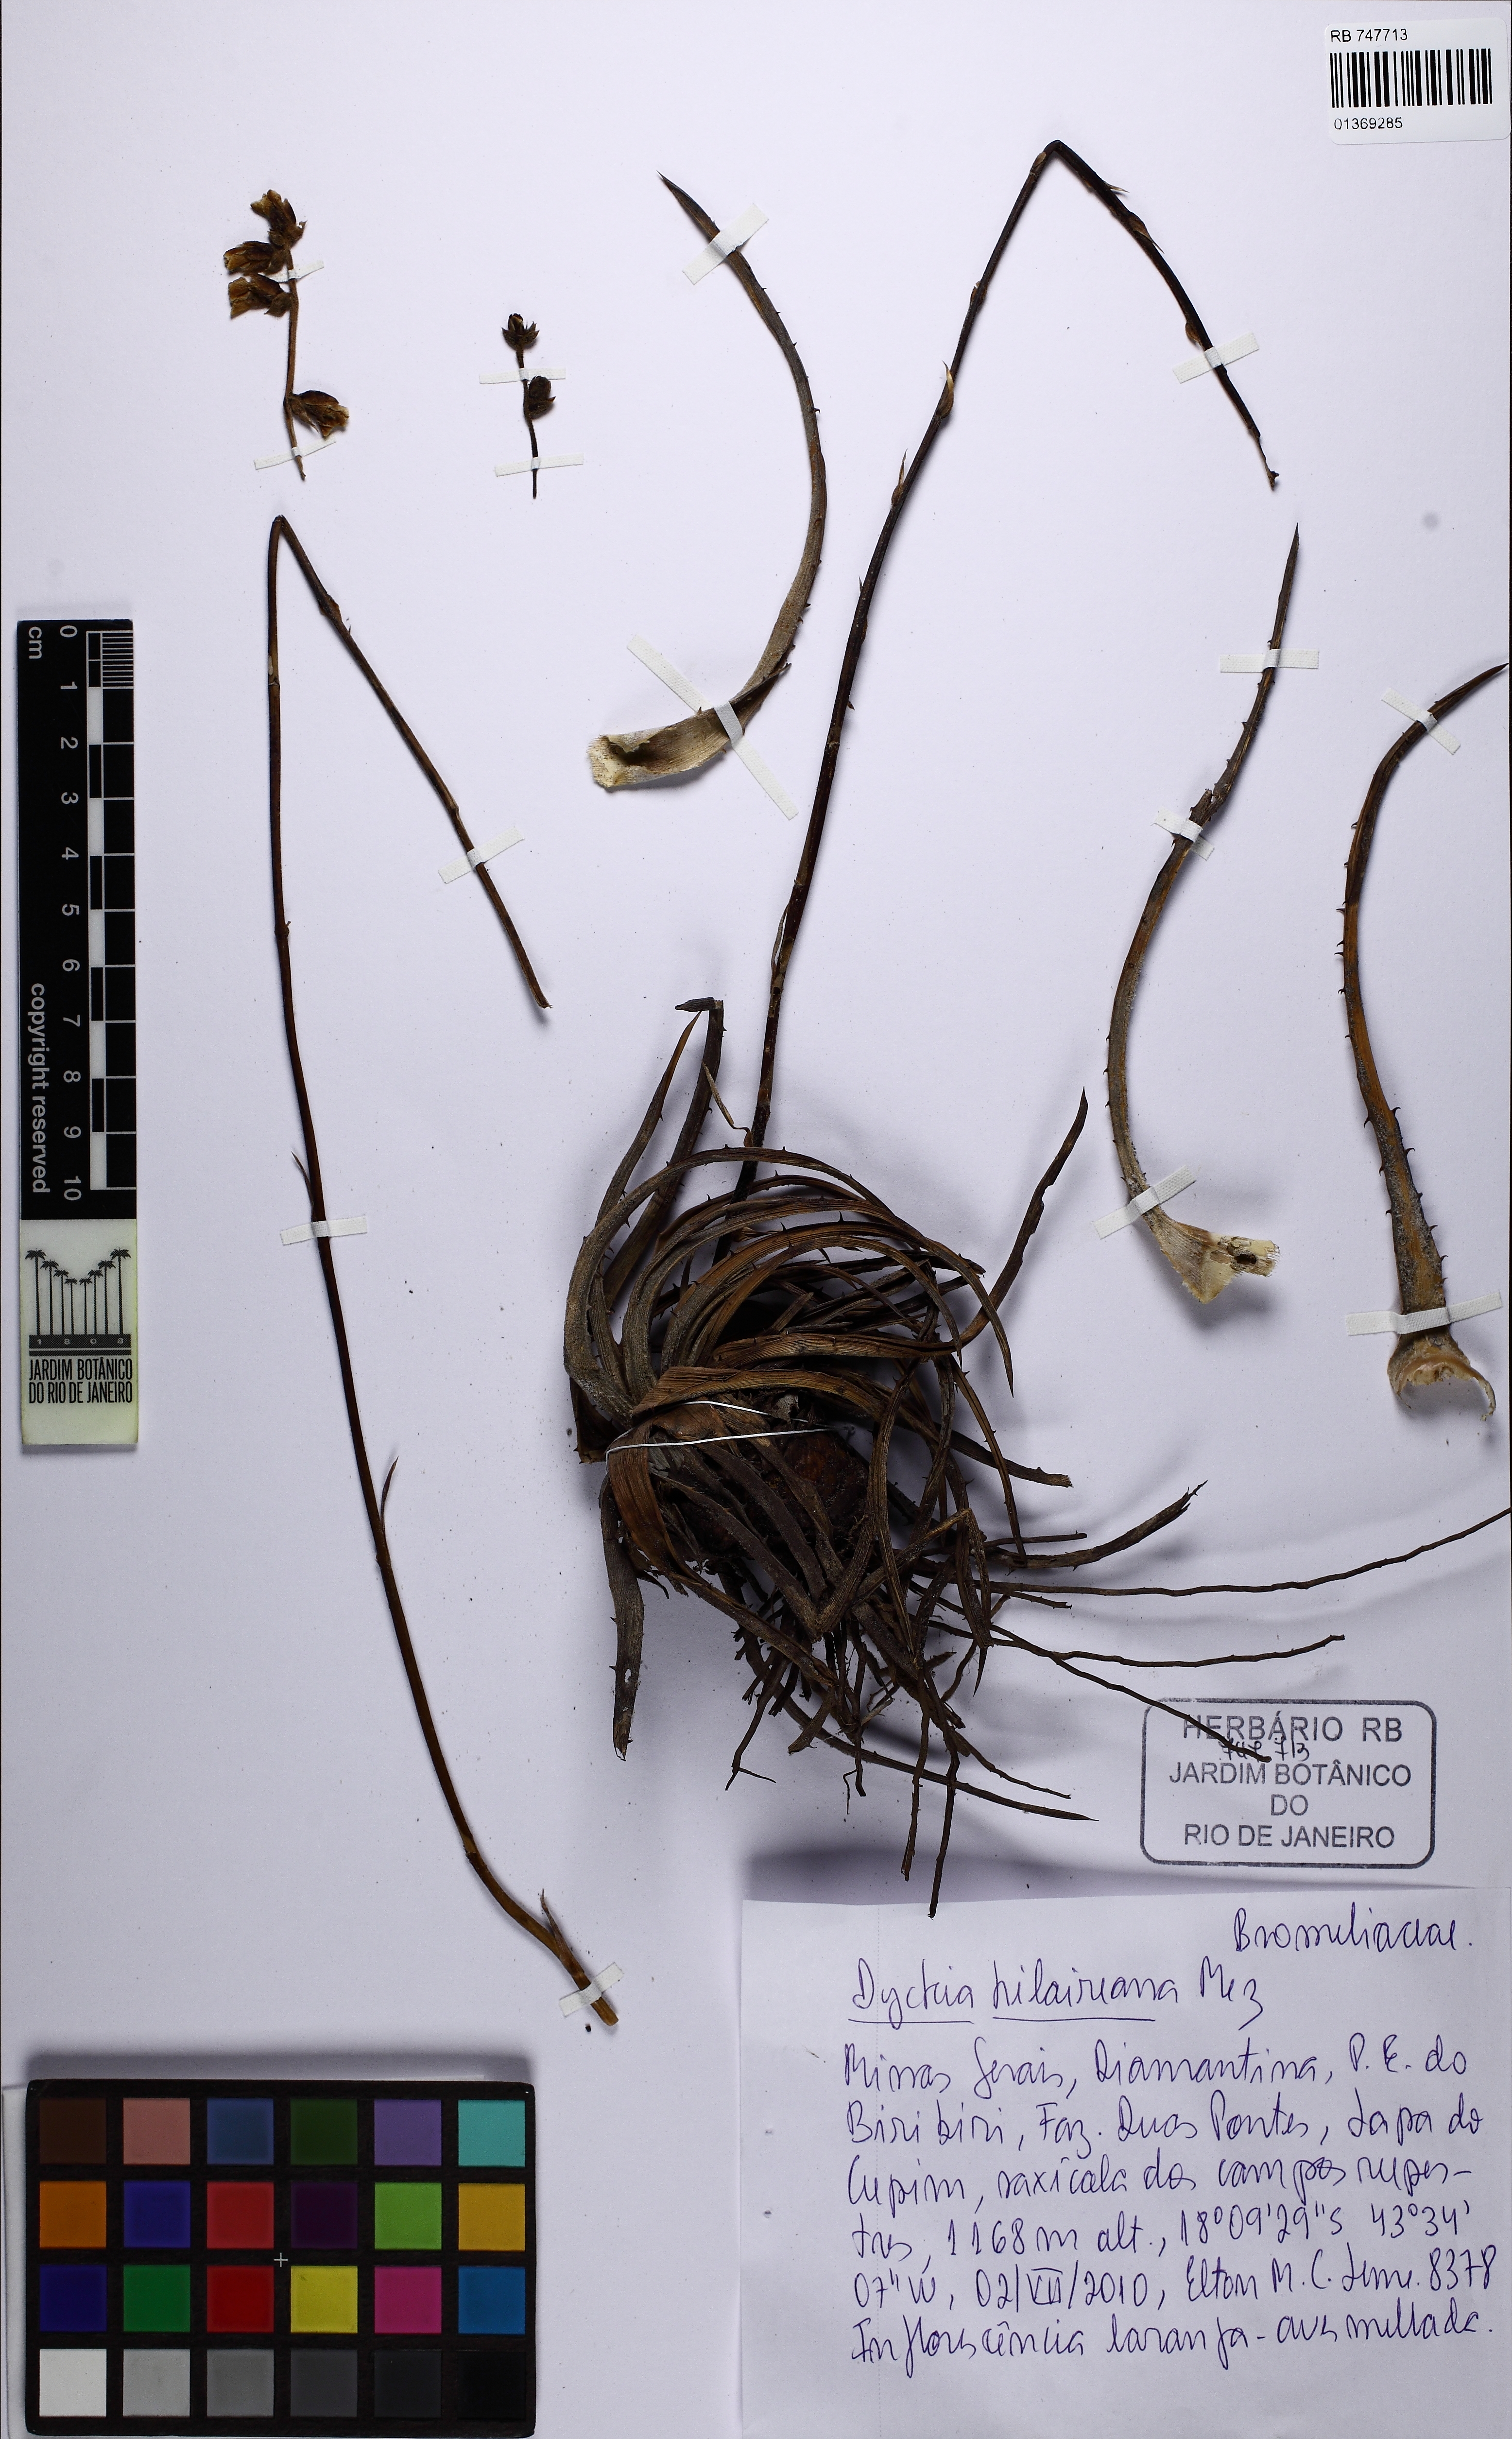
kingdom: Plantae
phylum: Tracheophyta
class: Liliopsida
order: Poales
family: Bromeliaceae
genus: Dyckia
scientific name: Dyckia saxatilis
